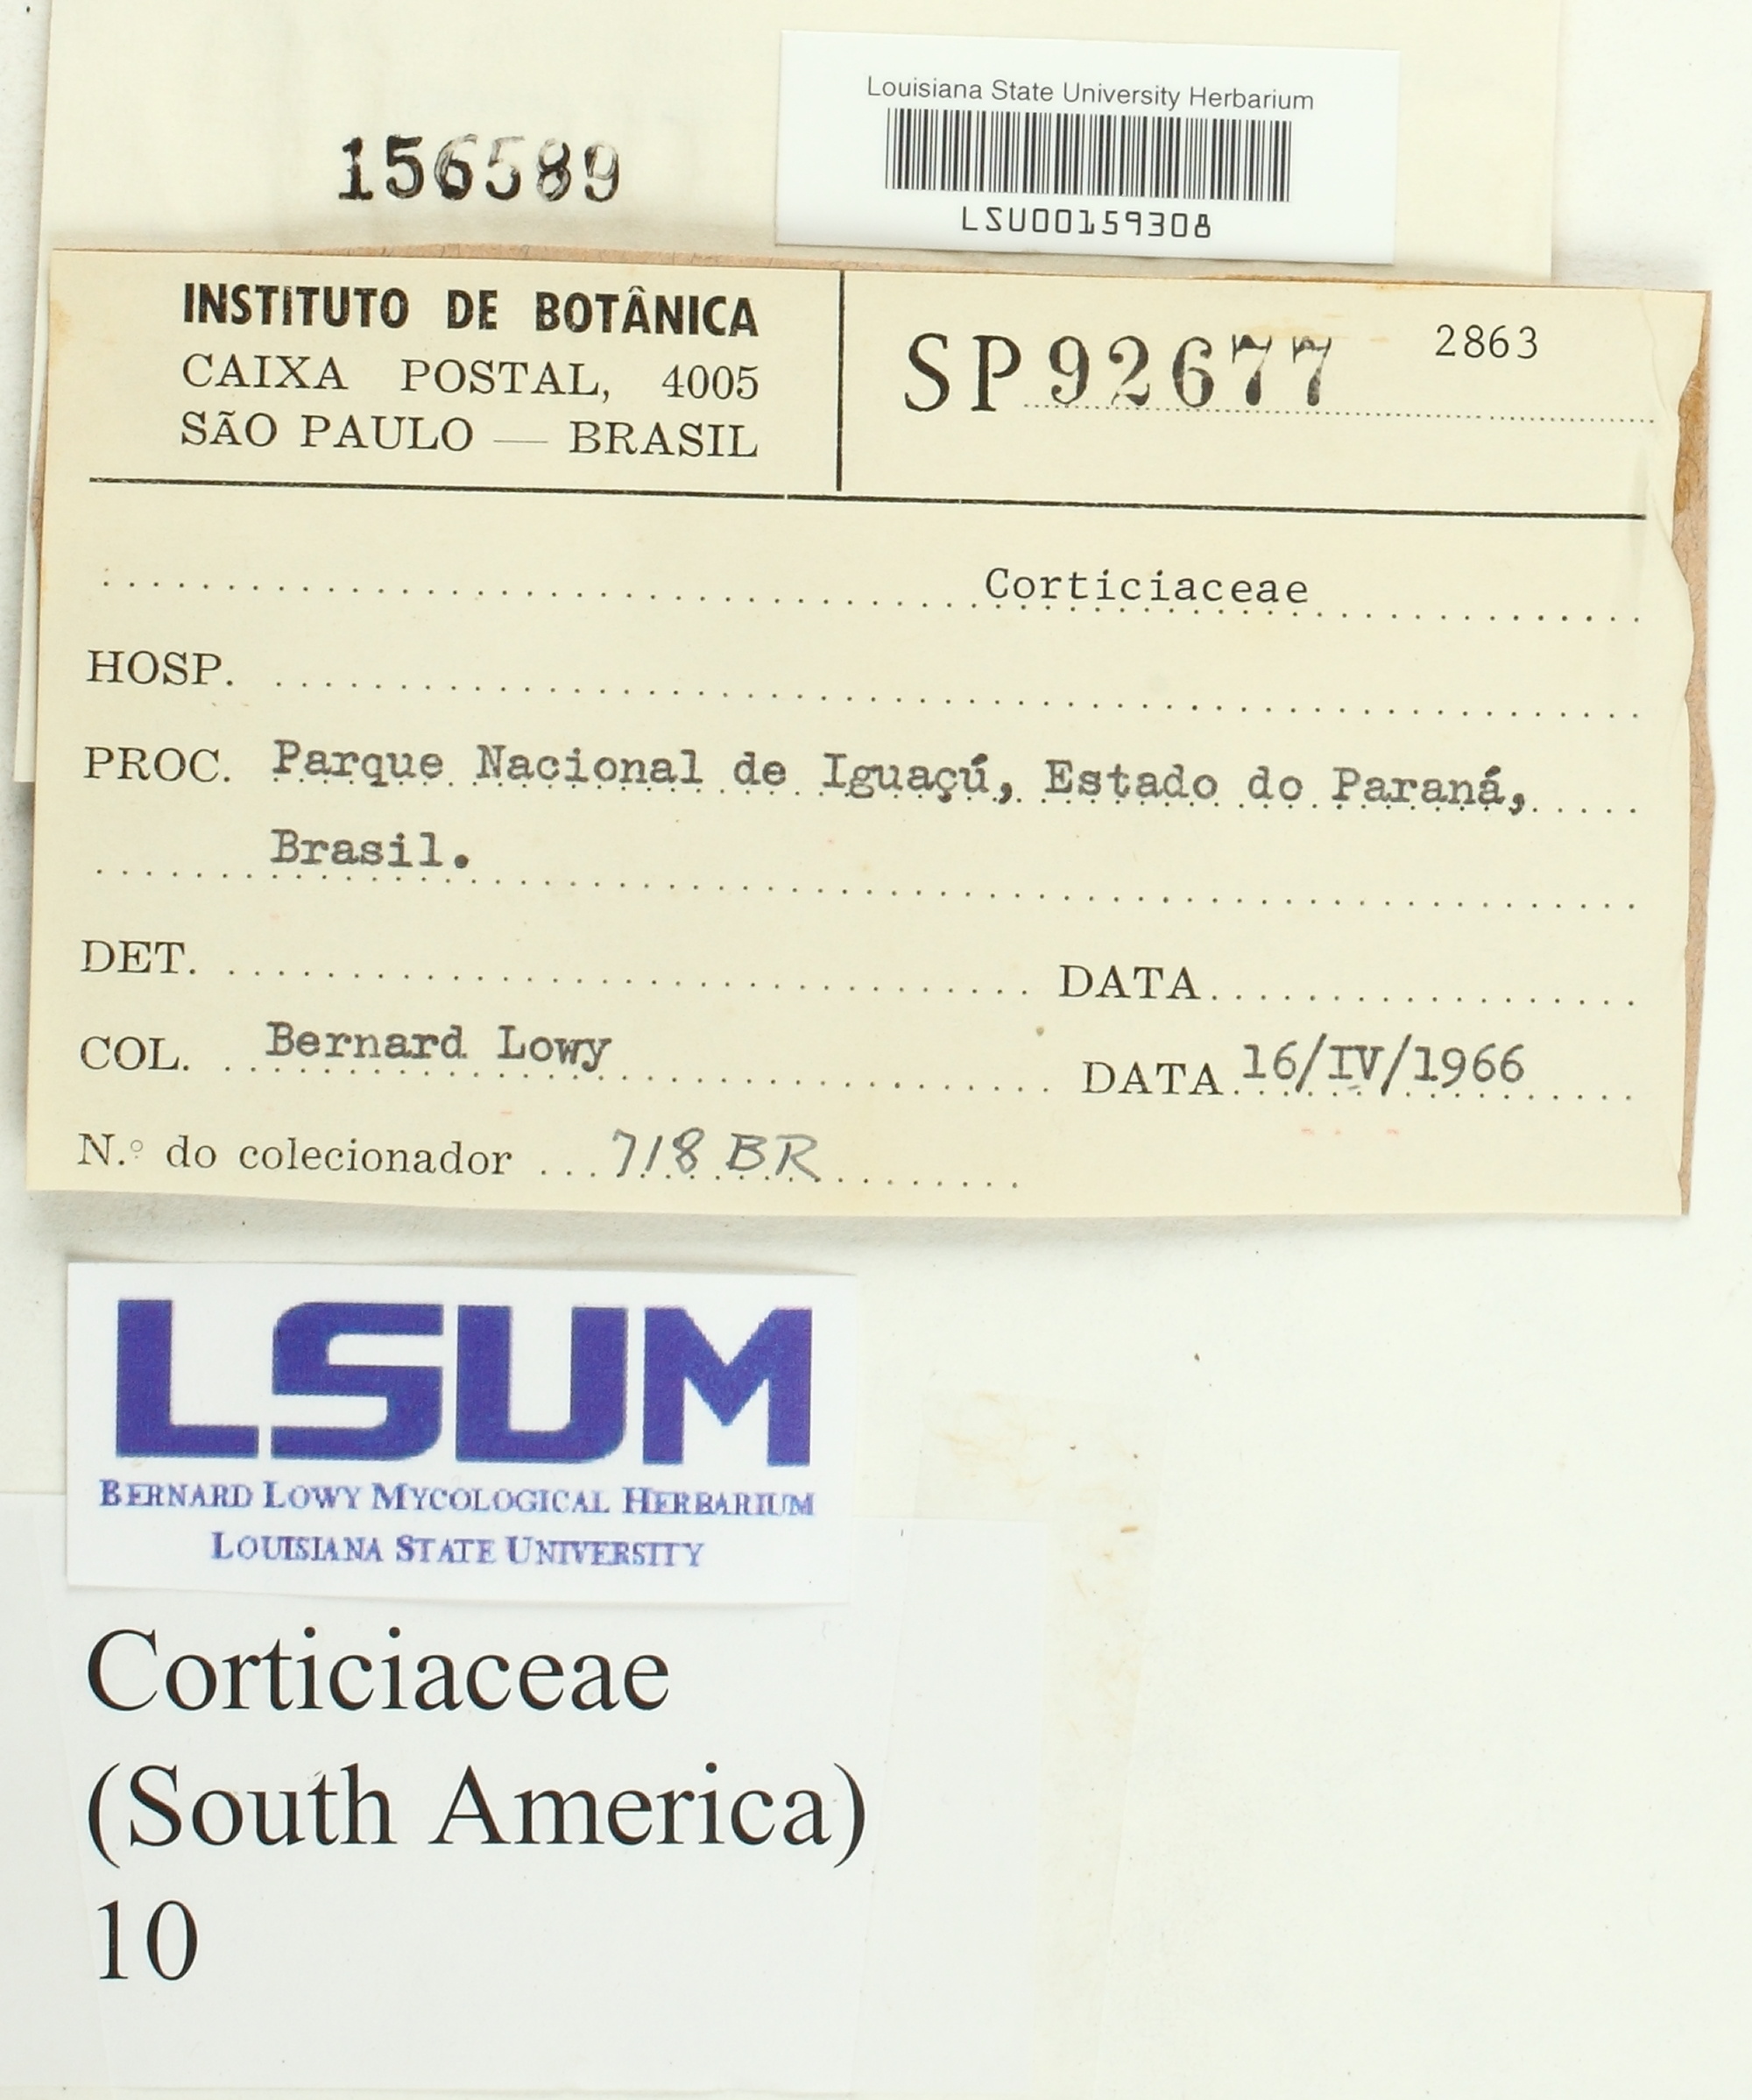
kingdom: Fungi
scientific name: Fungi
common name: Fungi
